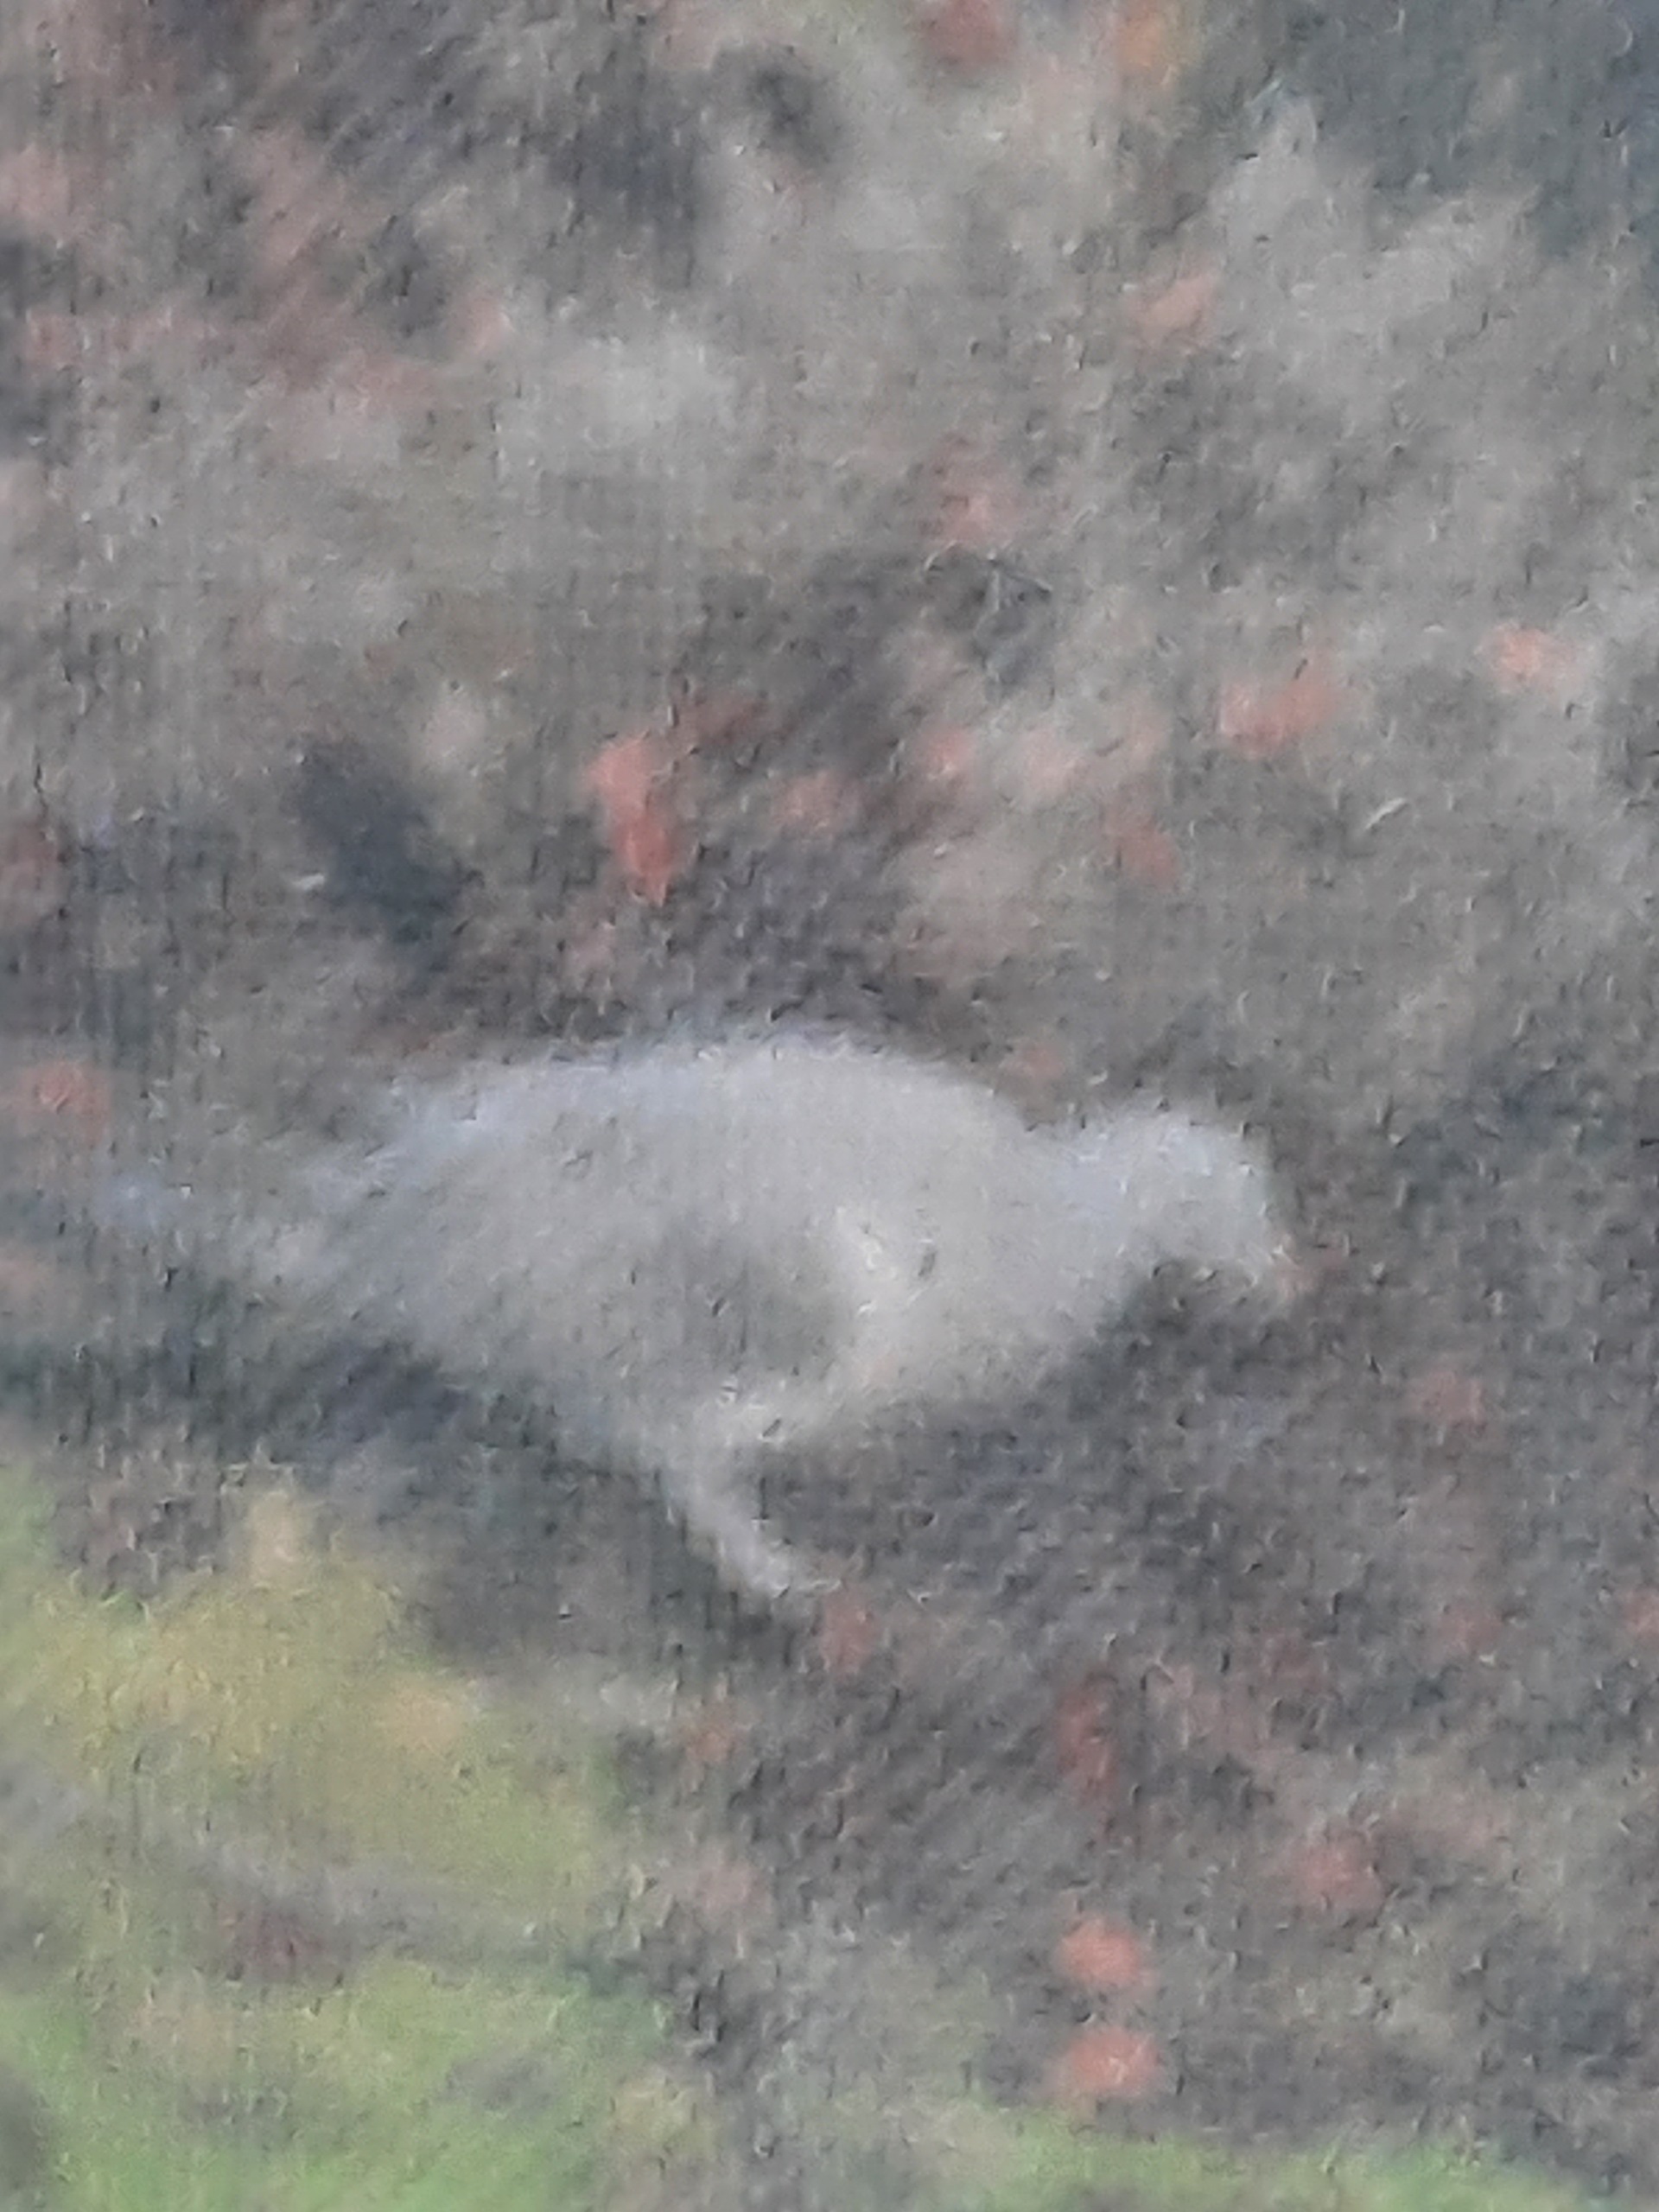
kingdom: Animalia
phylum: Chordata
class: Aves
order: Columbiformes
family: Columbidae
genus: Columba
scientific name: Columba palumbus
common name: Ringdue
